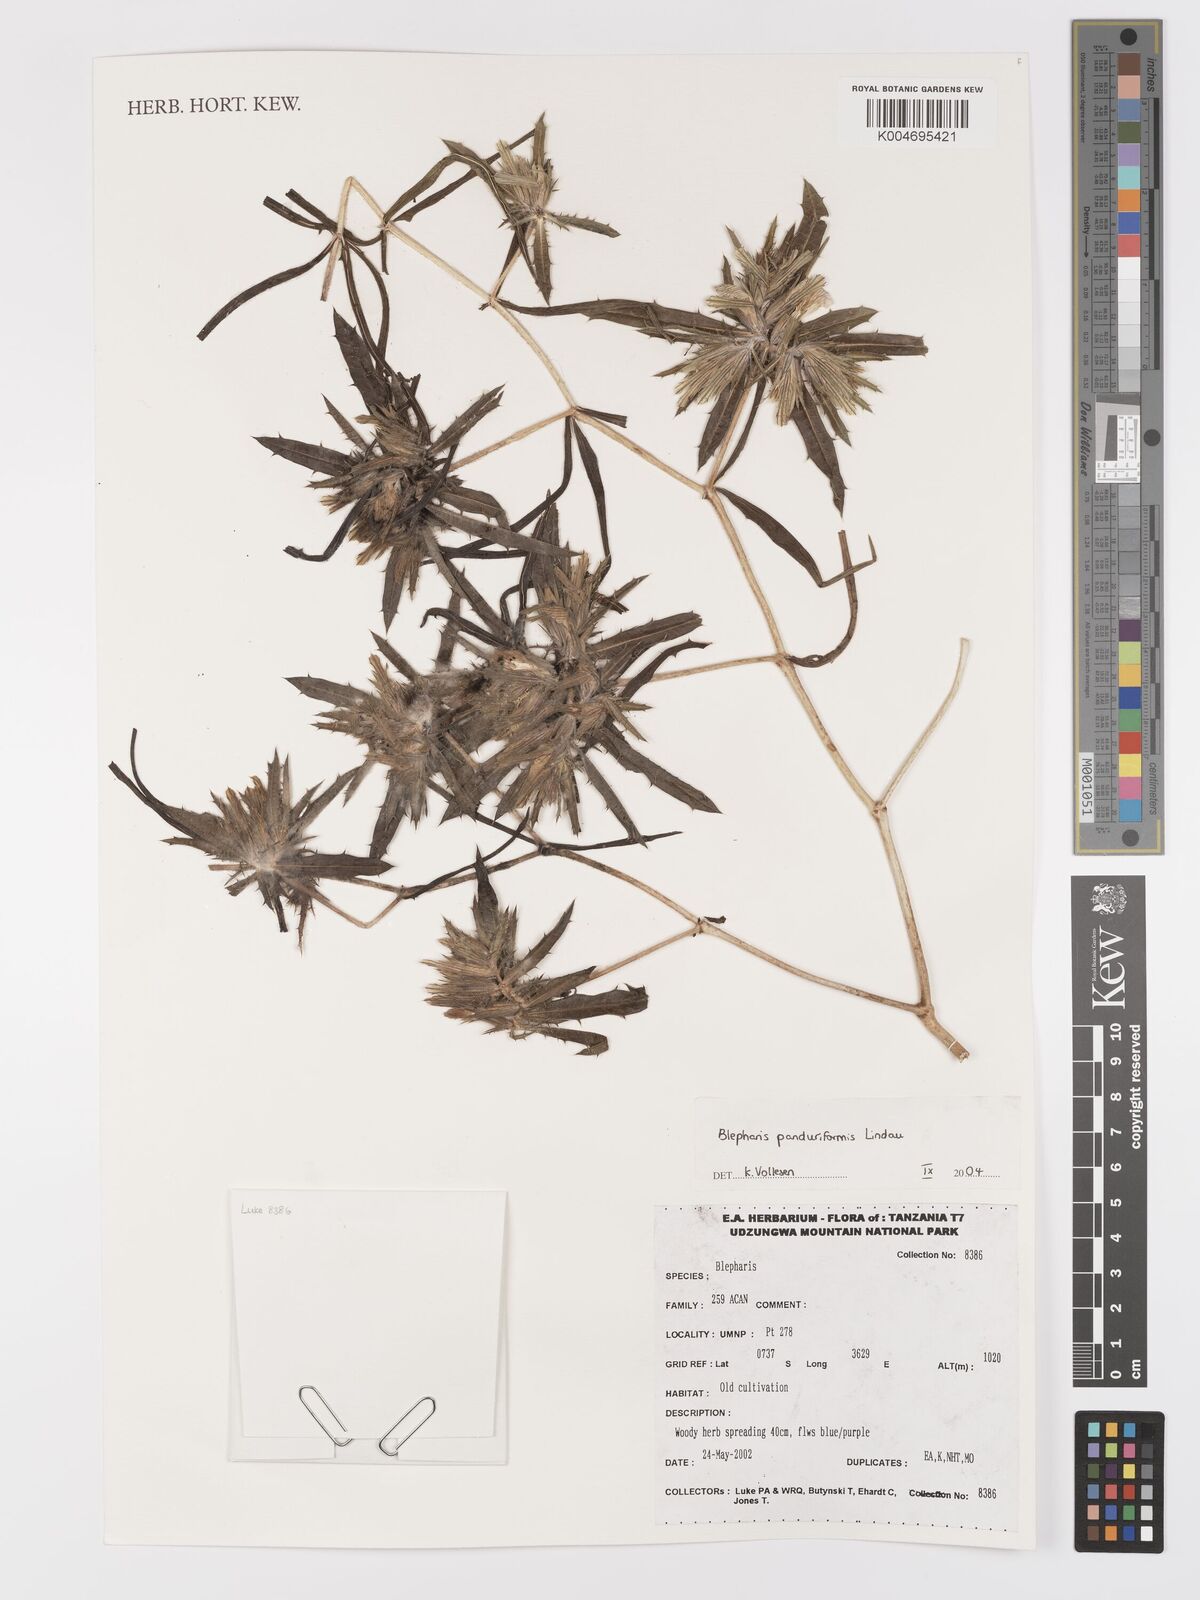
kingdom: Plantae
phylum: Tracheophyta
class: Magnoliopsida
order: Lamiales
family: Acanthaceae
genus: Blepharis
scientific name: Blepharis panduriformis
